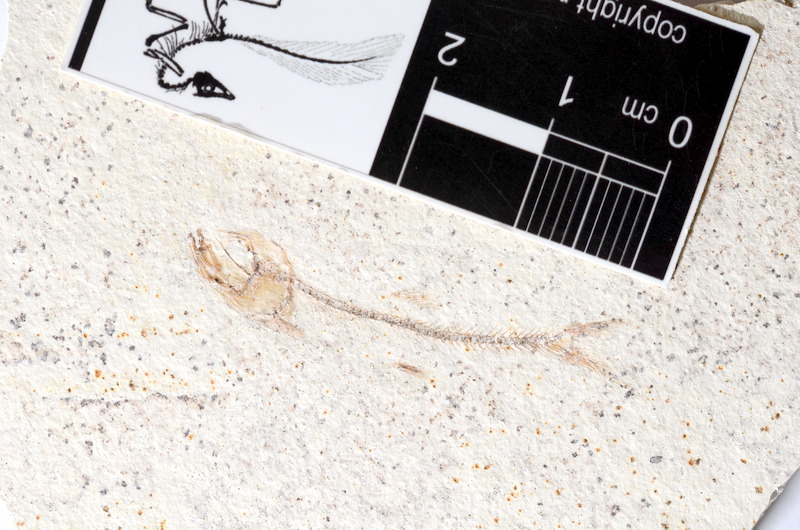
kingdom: Animalia
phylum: Chordata
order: Salmoniformes
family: Orthogonikleithridae
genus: Orthogonikleithrus
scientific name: Orthogonikleithrus hoelli
